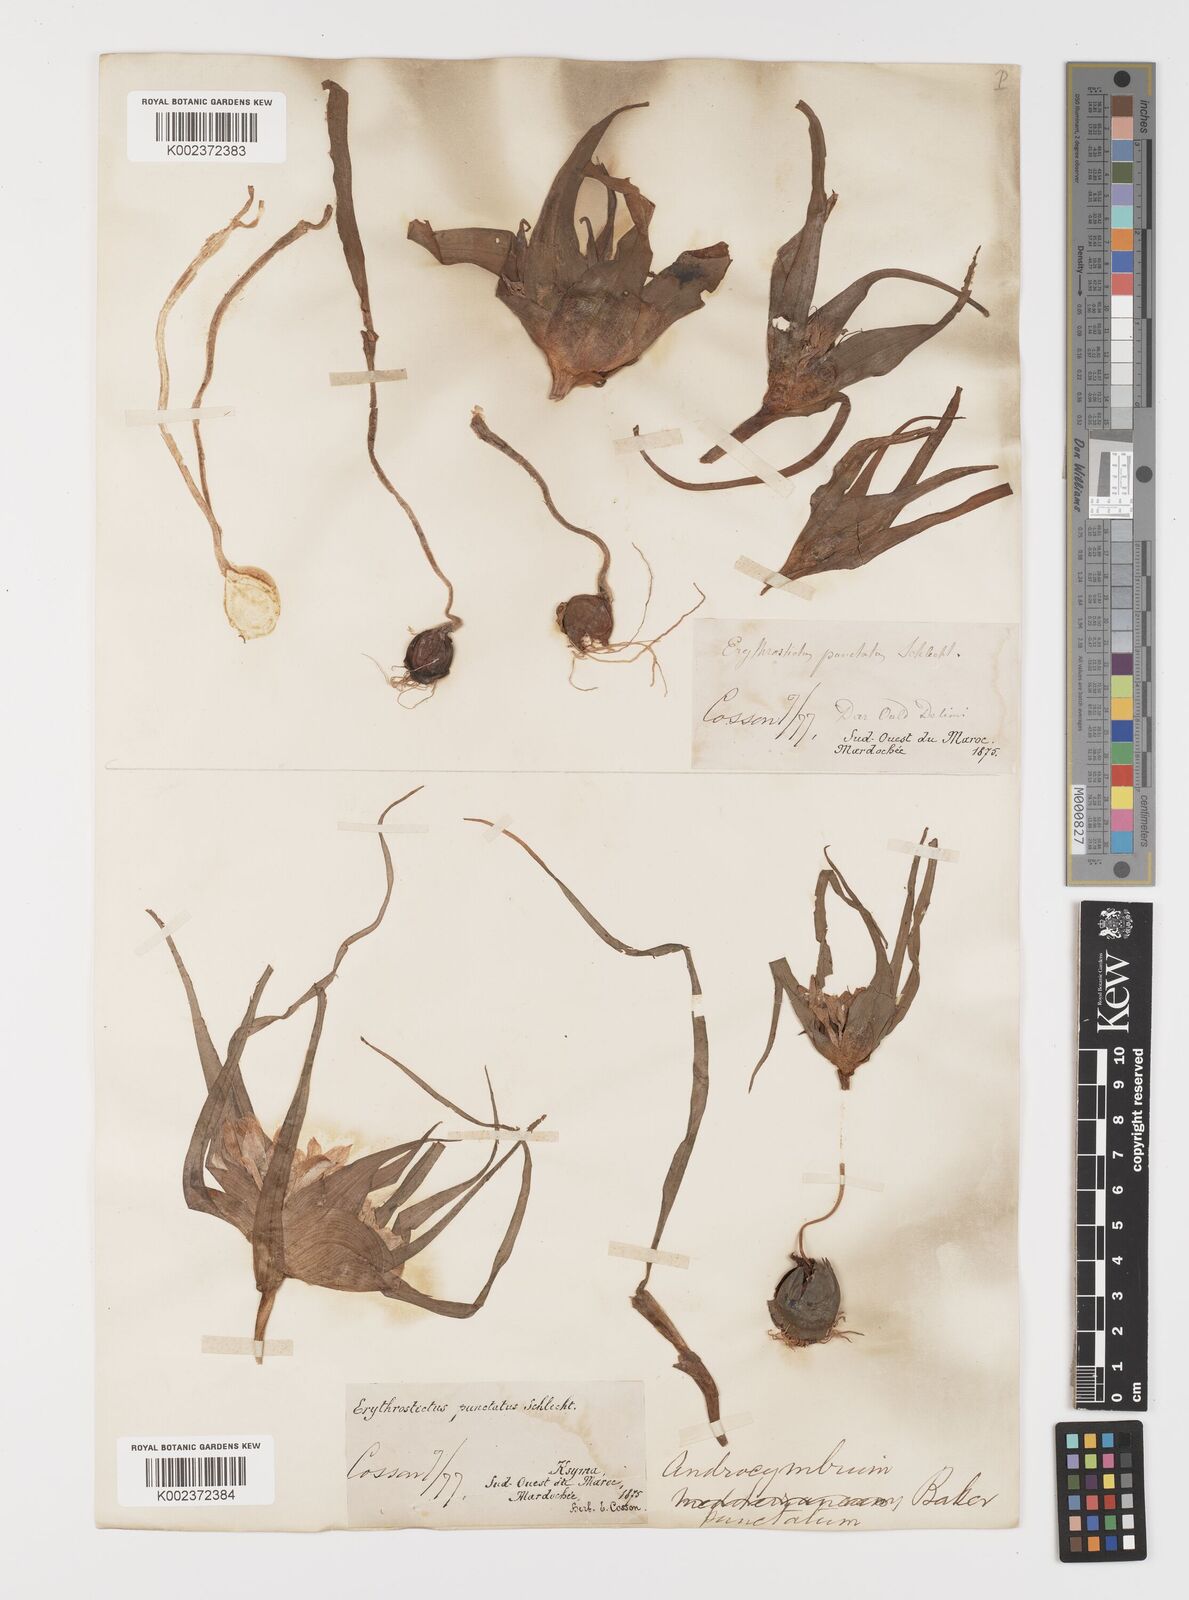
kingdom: Plantae
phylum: Tracheophyta
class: Liliopsida
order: Liliales
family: Colchicaceae
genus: Colchicum
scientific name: Colchicum gramineum
